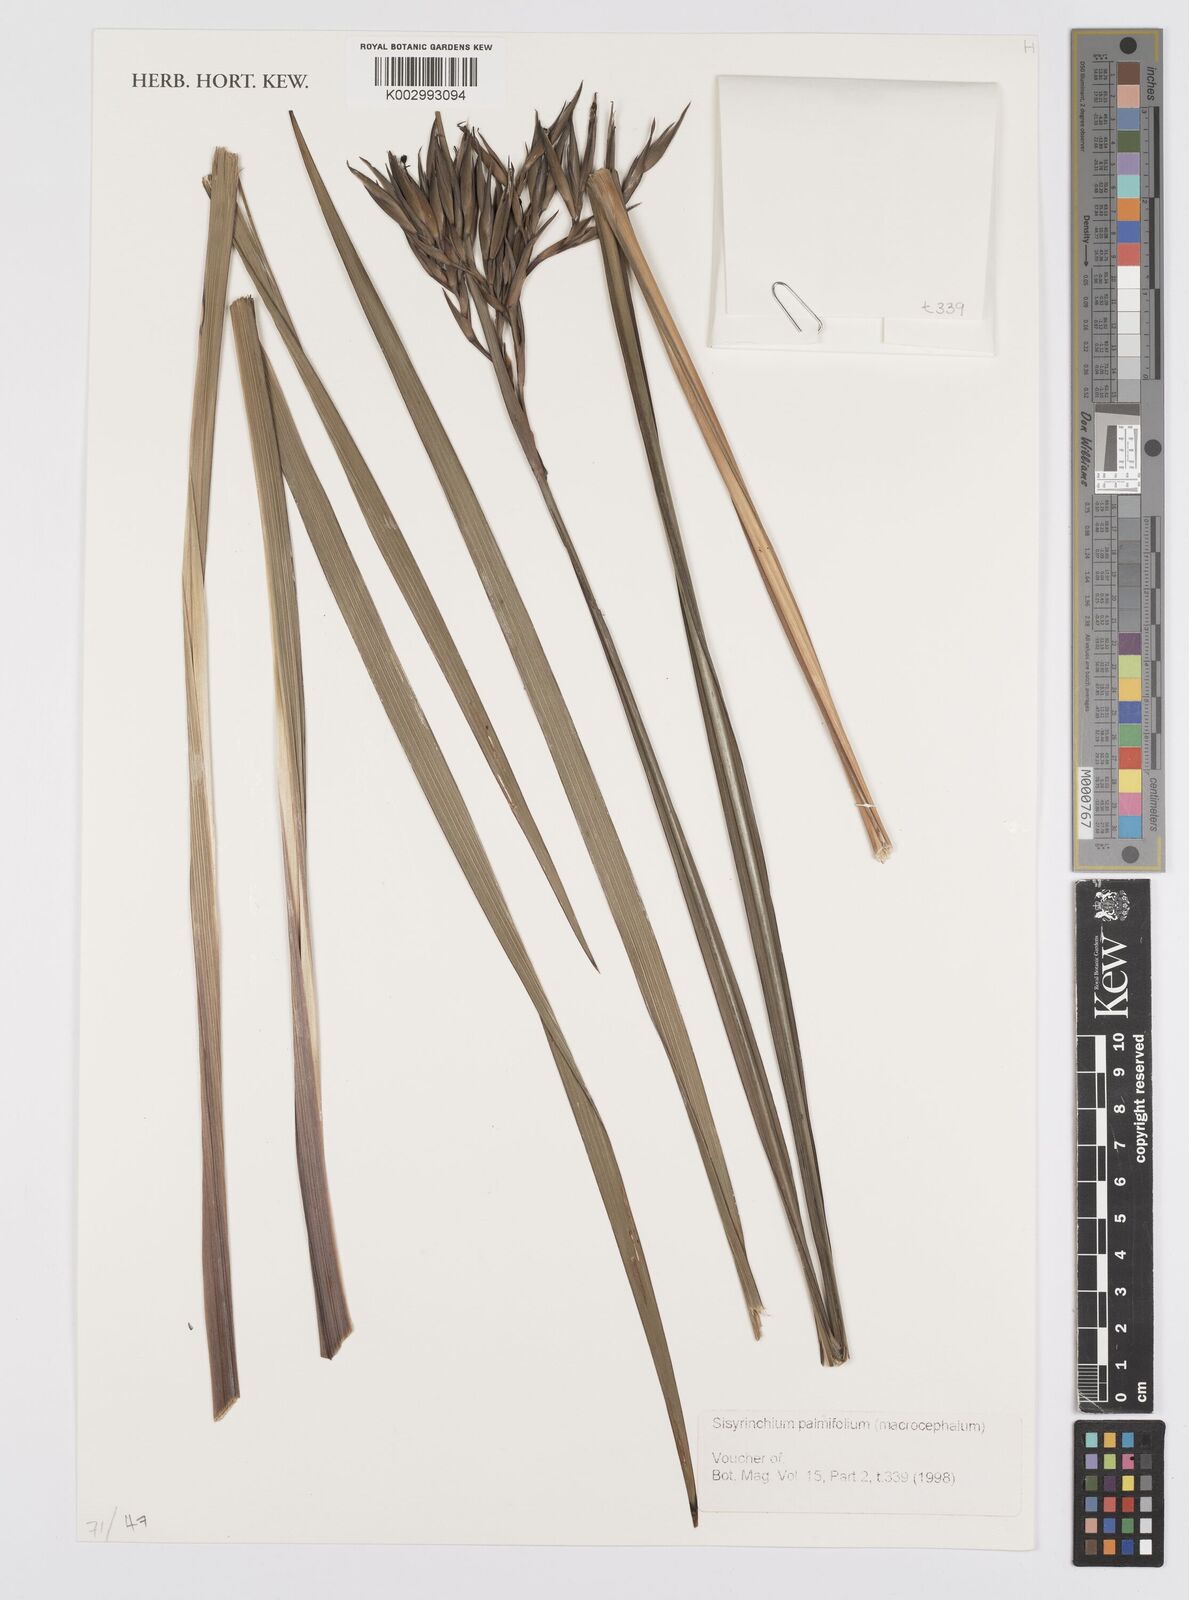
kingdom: Plantae
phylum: Tracheophyta
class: Liliopsida
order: Asparagales
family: Iridaceae
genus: Sisyrinchium
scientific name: Sisyrinchium palmifolium
